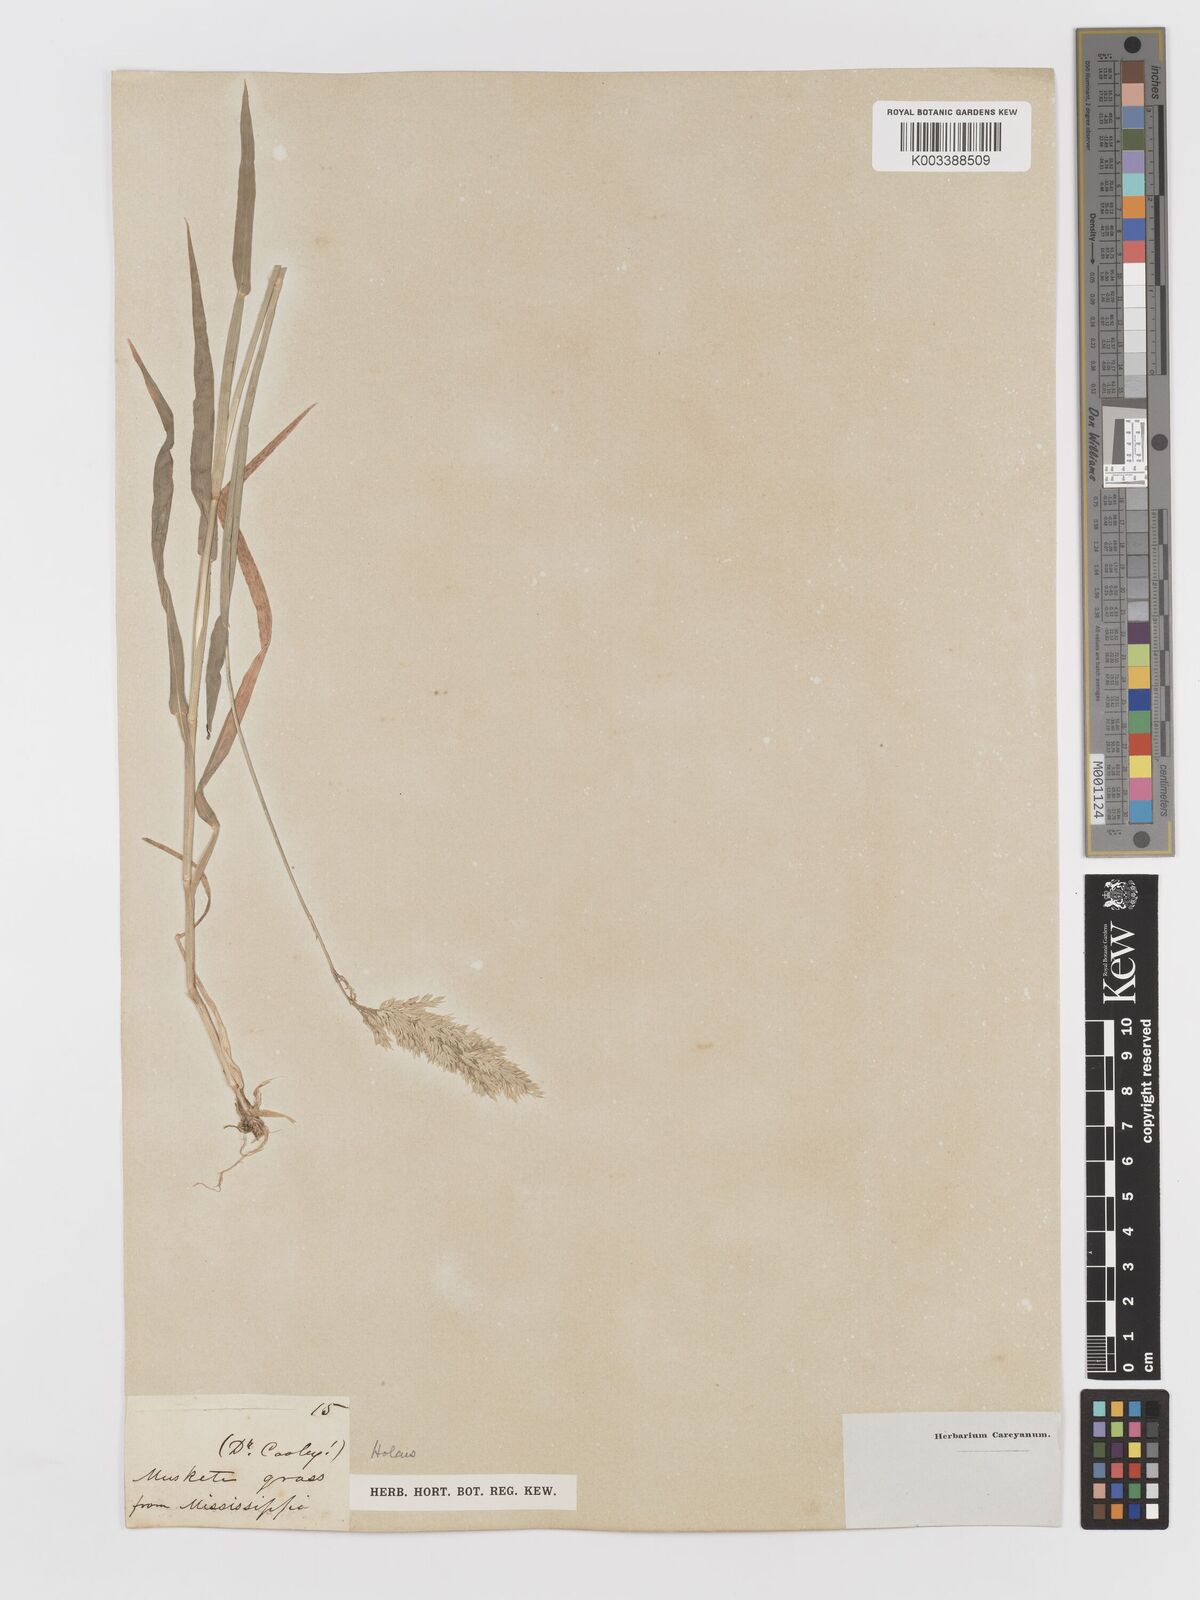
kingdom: Plantae
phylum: Tracheophyta
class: Liliopsida
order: Poales
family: Poaceae
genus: Holcus
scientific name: Holcus lanatus
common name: Yorkshire-fog
